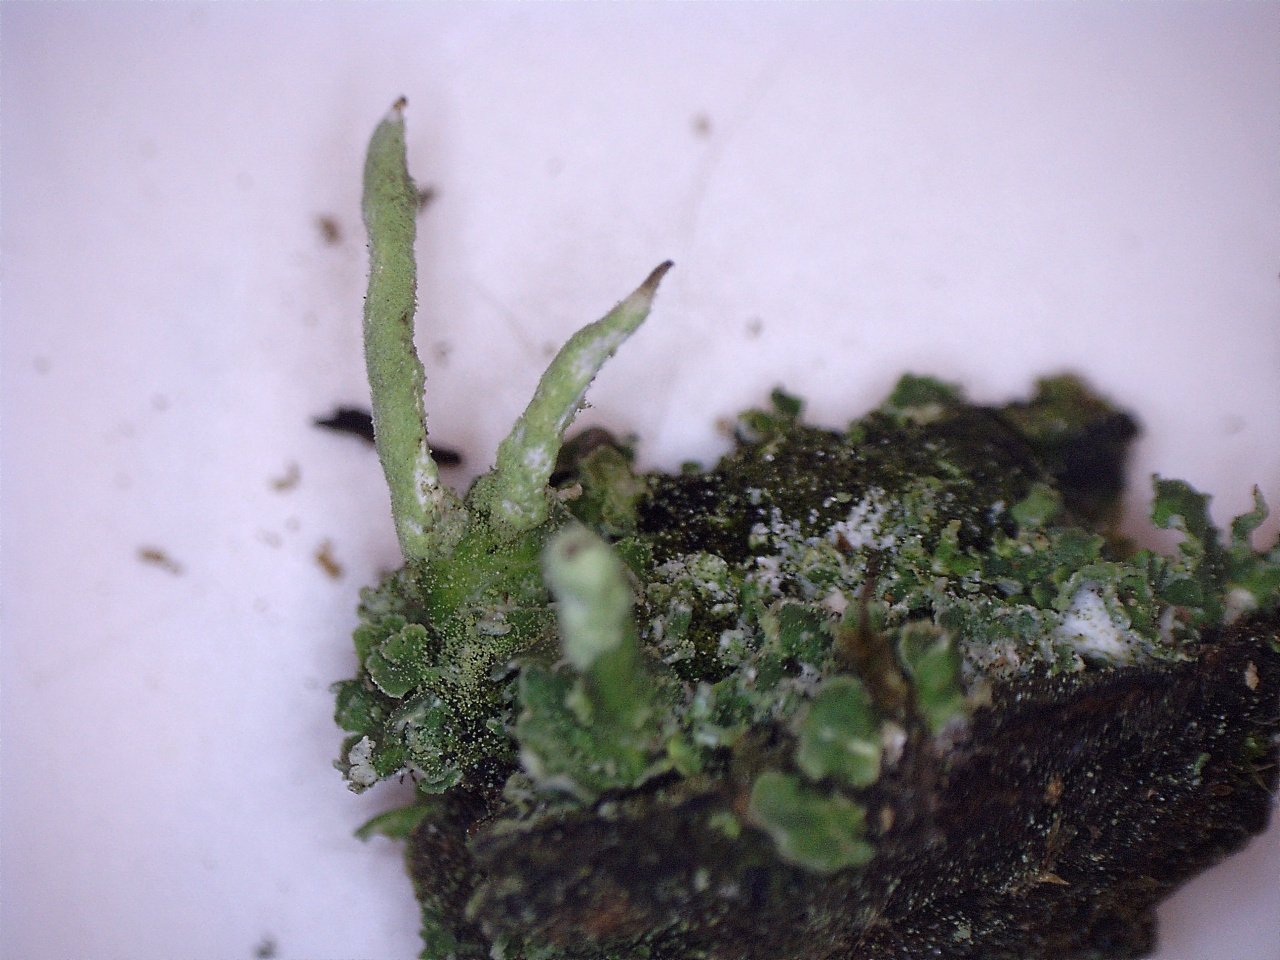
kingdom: Fungi
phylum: Ascomycota
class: Lecanoromycetes
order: Lecanorales
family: Cladoniaceae
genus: Cladonia
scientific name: Cladonia coniocraea
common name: træfods-bægerlav
